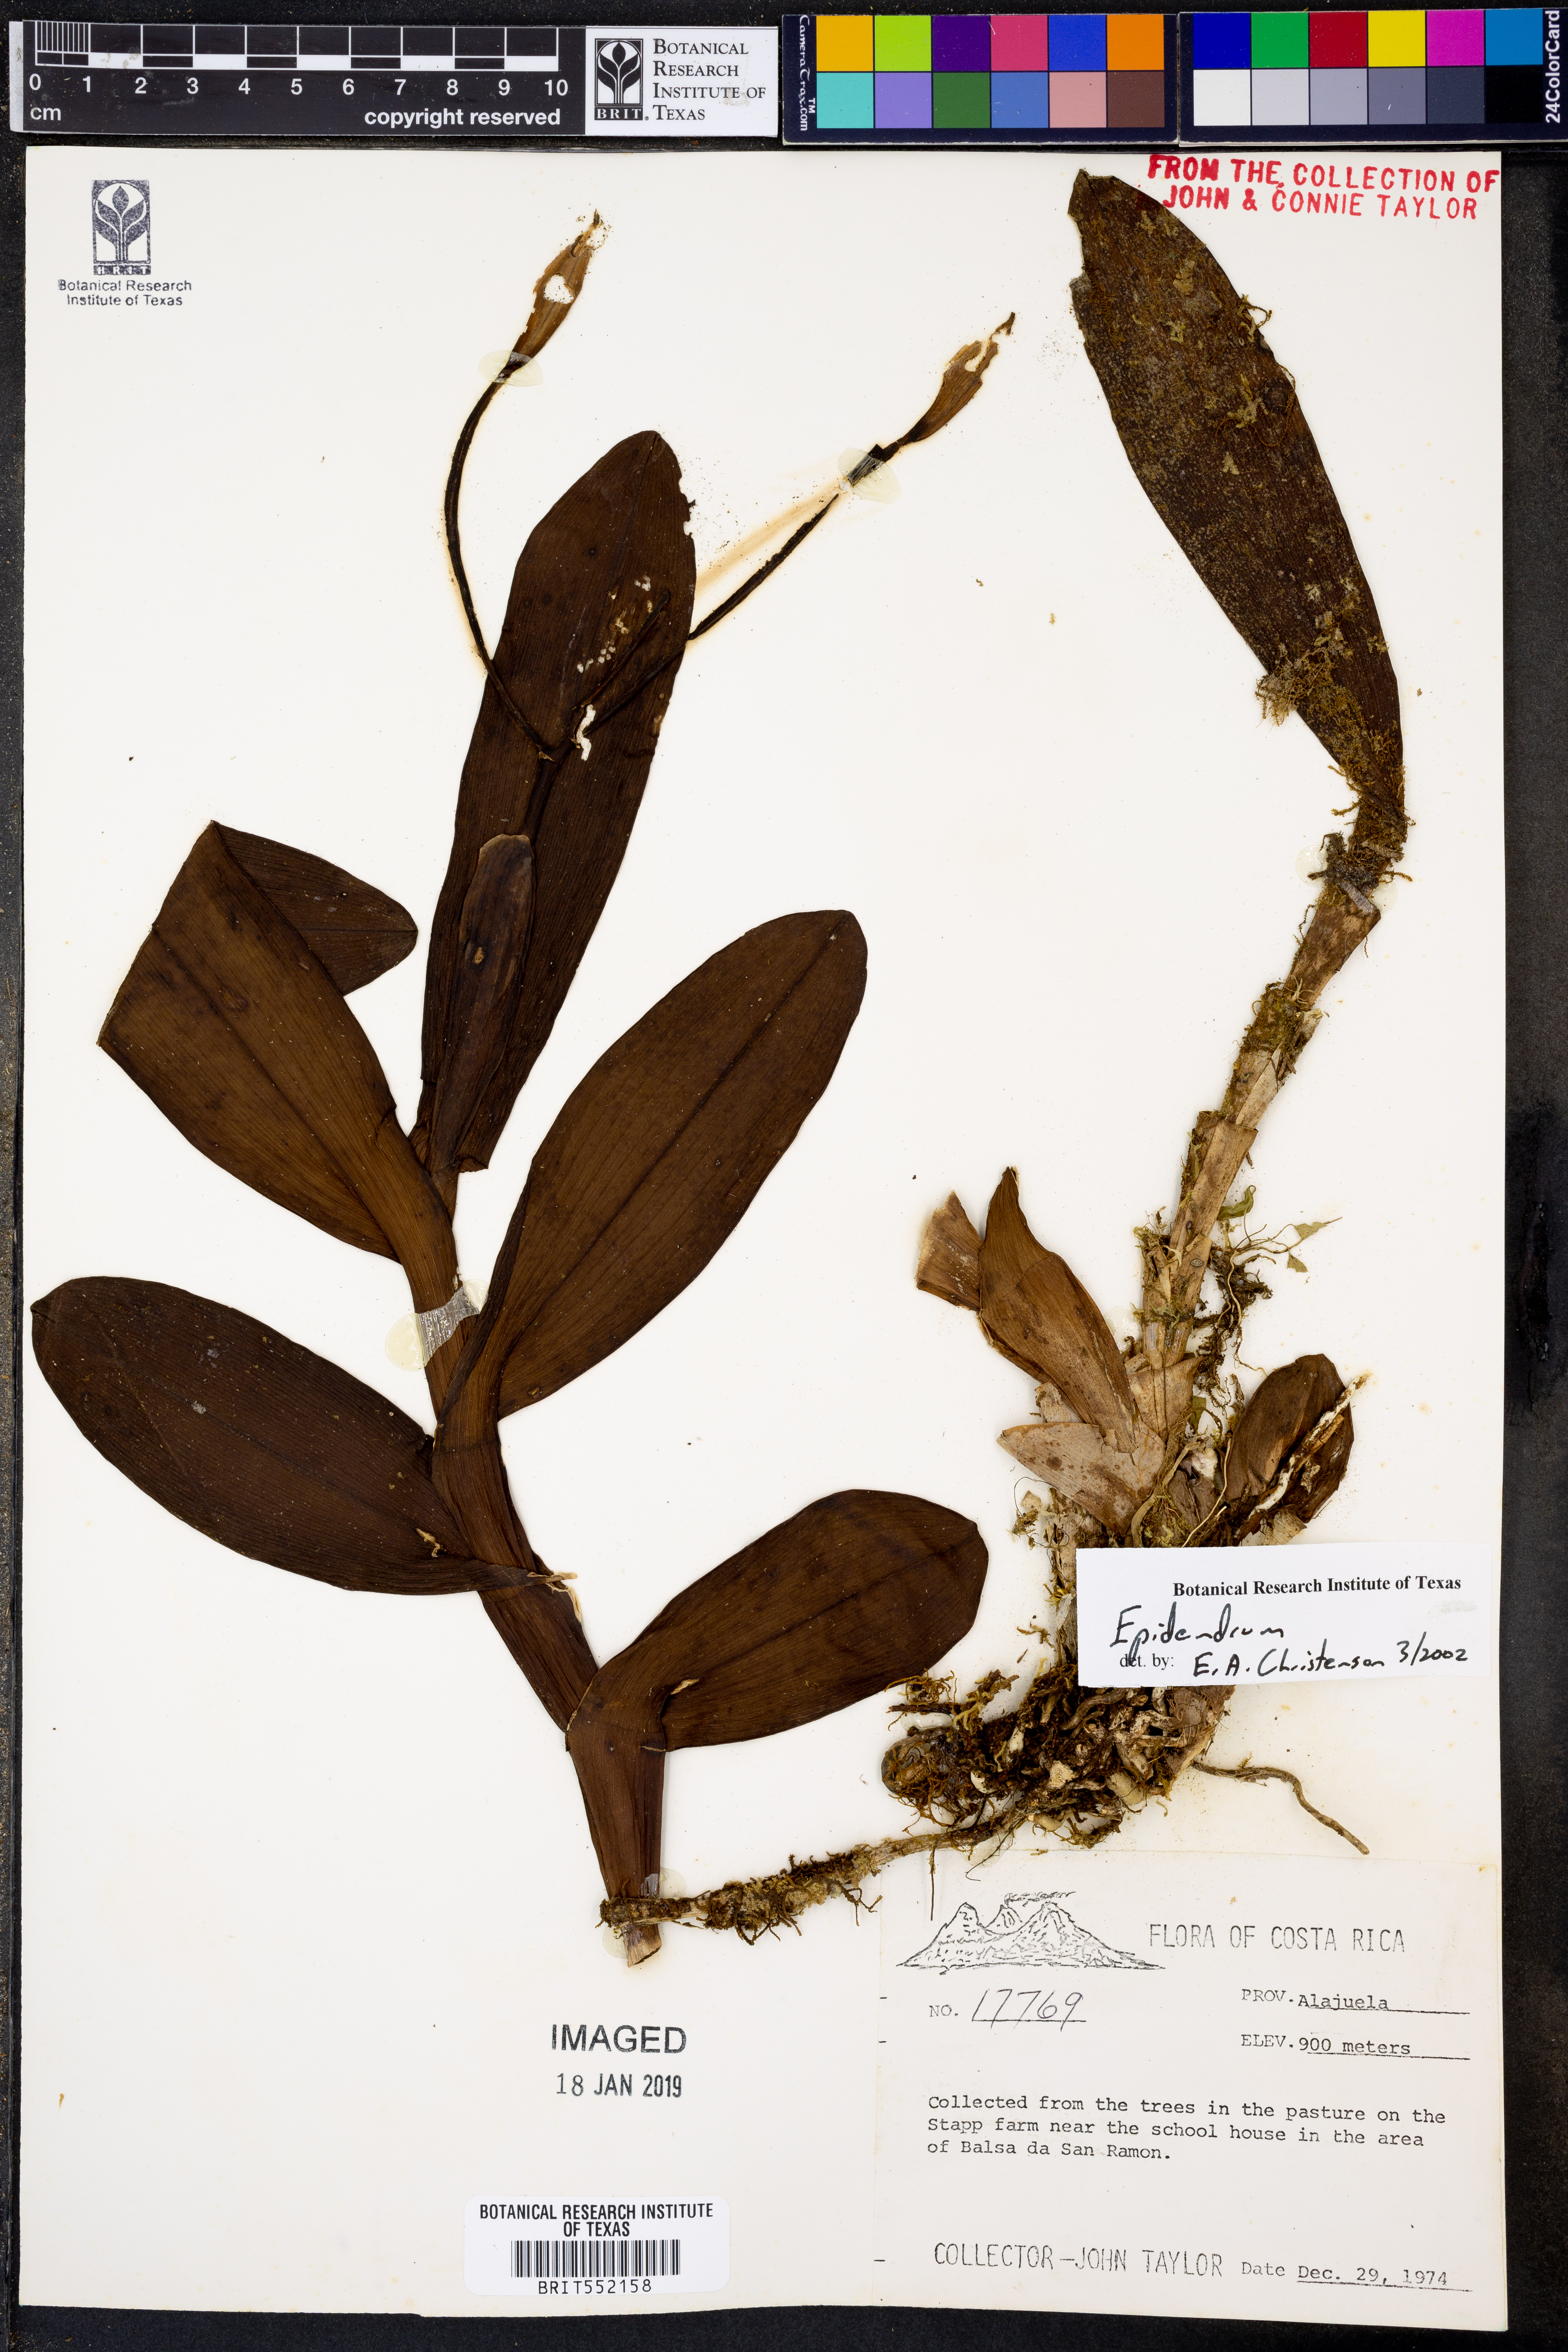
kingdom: Plantae
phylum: Tracheophyta
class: Liliopsida
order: Asparagales
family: Orchidaceae
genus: Epidendrum
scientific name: Epidendrum
